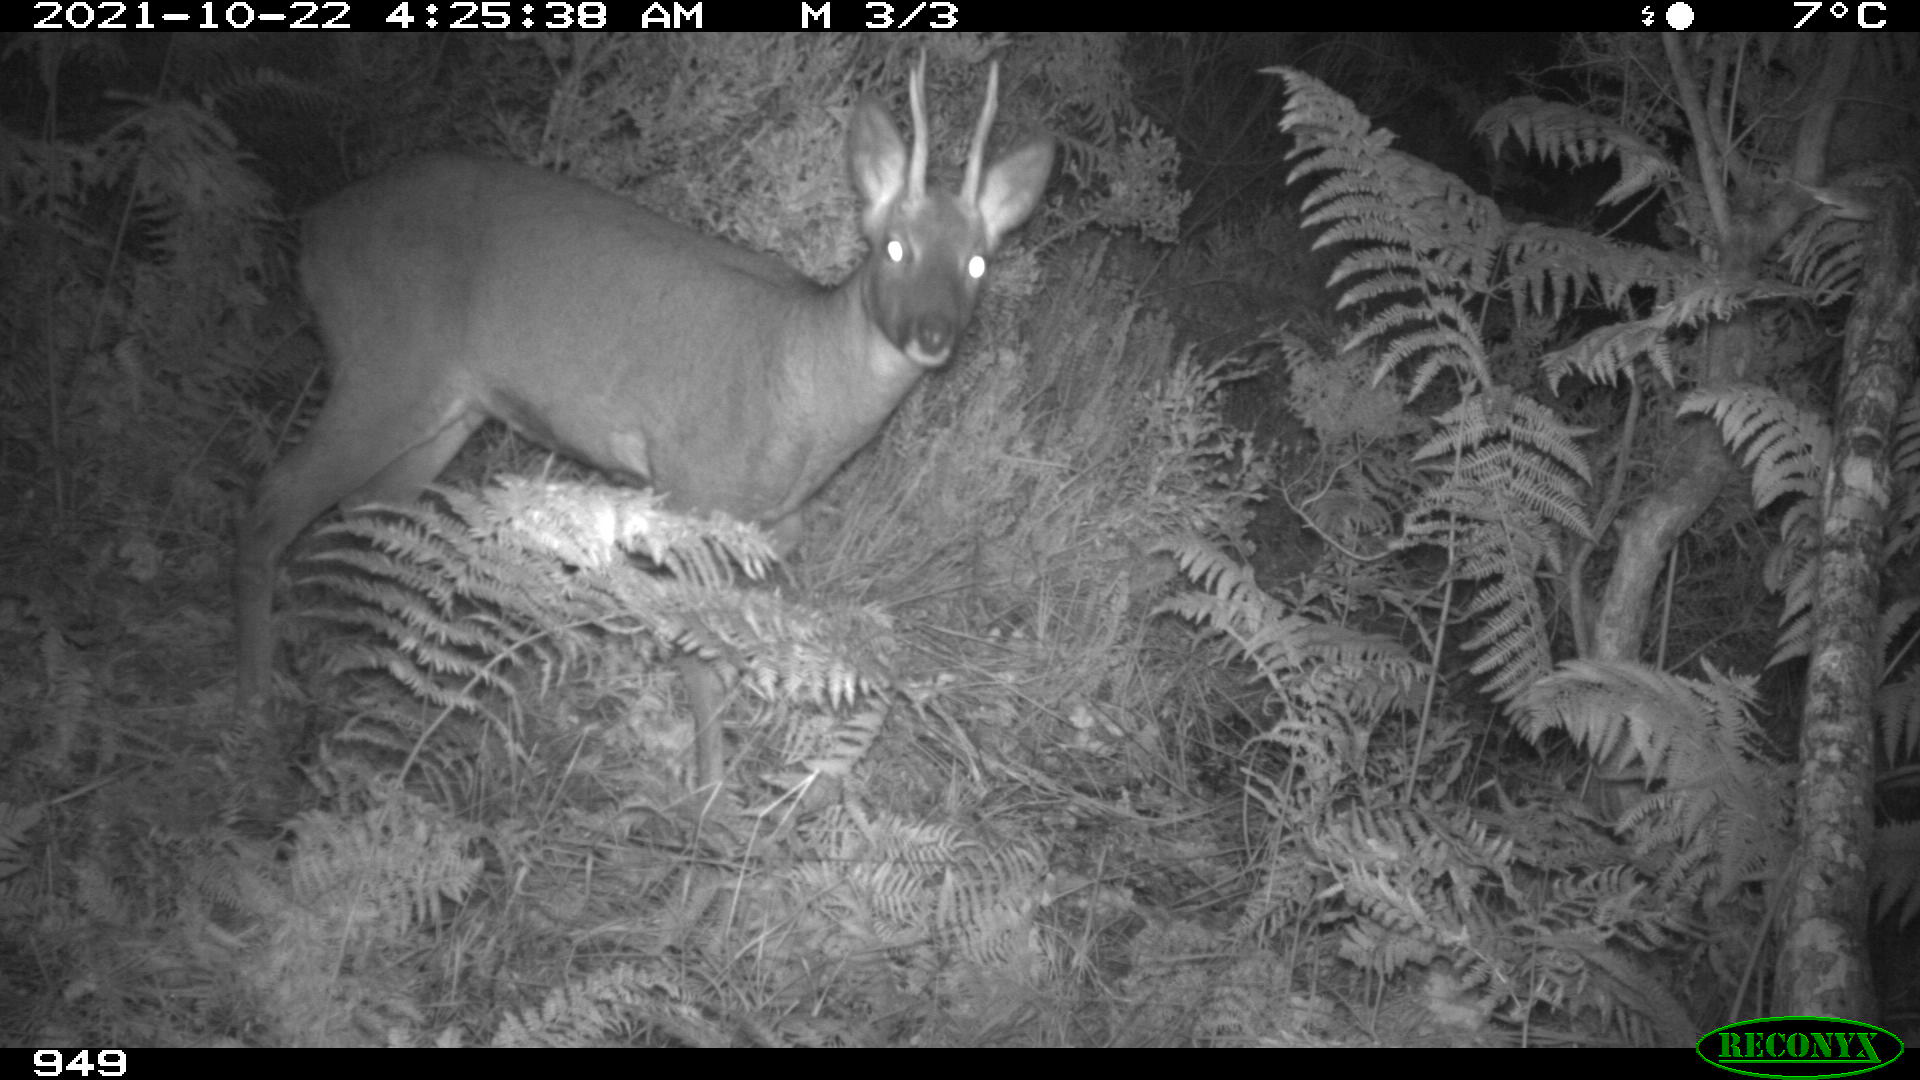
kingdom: Animalia
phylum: Chordata
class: Mammalia
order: Artiodactyla
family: Cervidae
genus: Capreolus
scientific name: Capreolus capreolus
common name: Western roe deer
